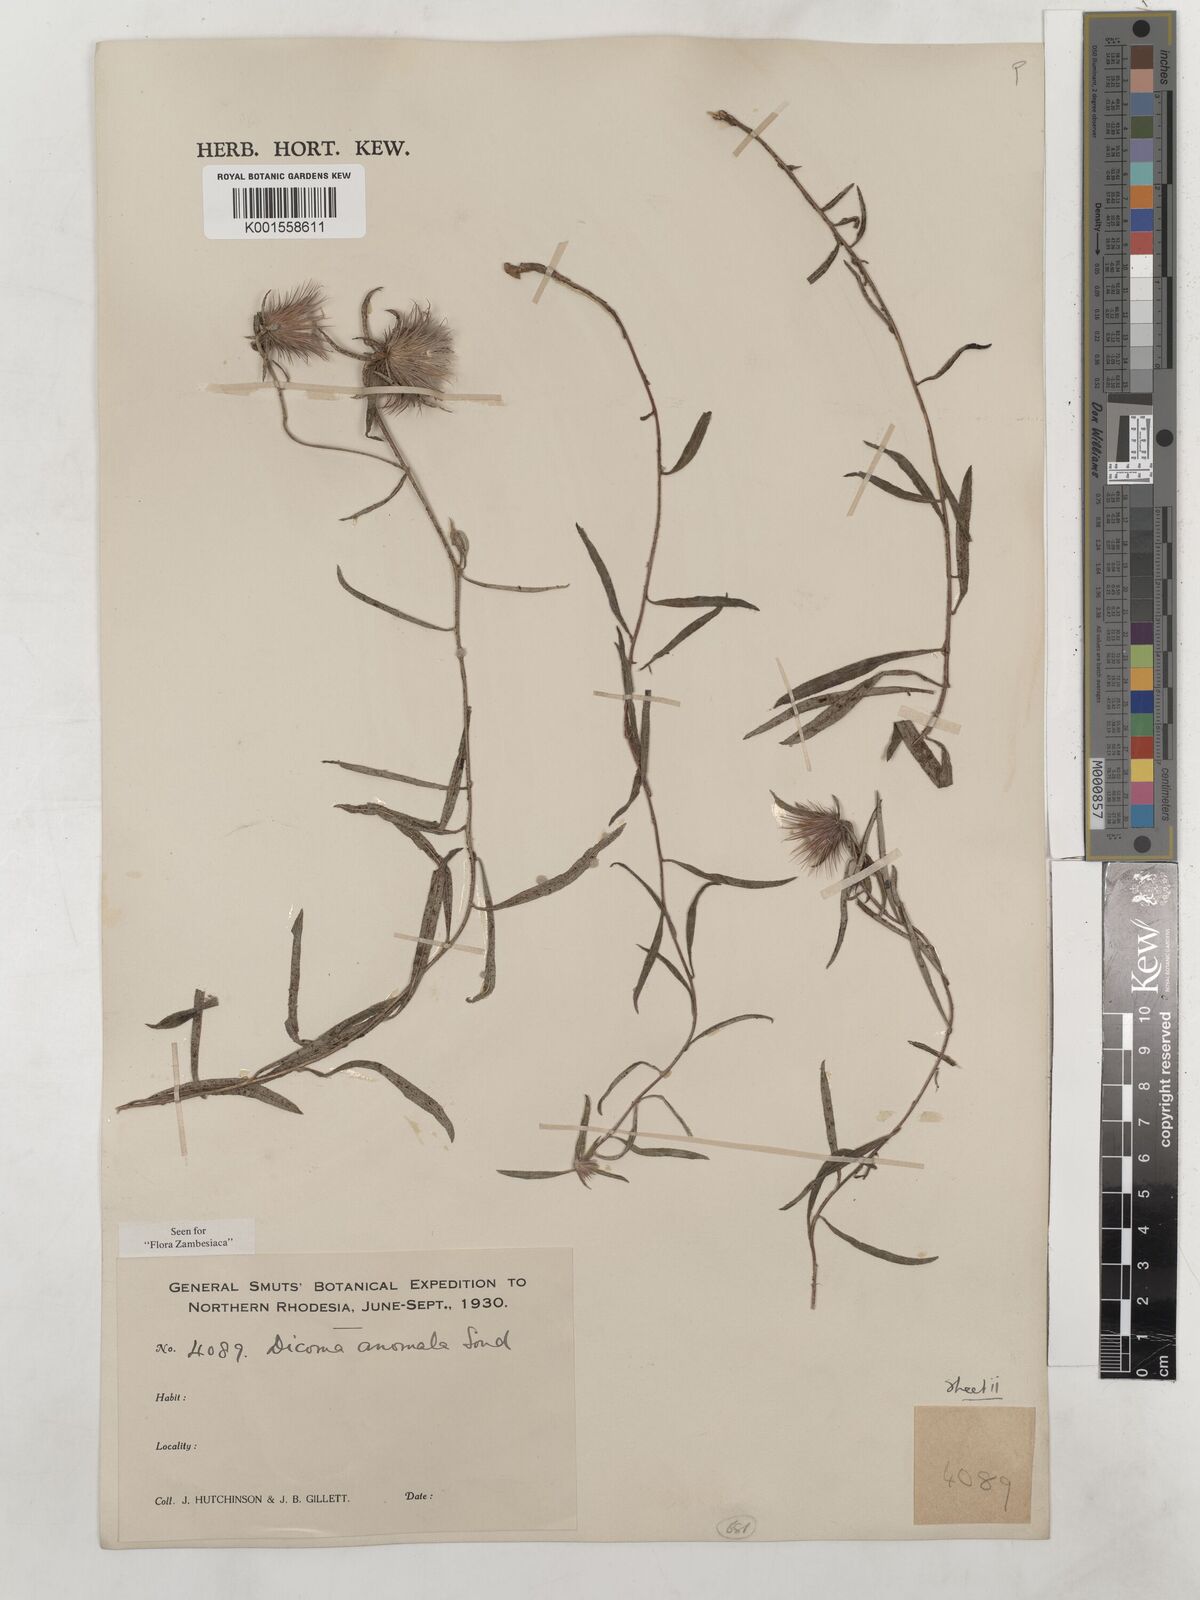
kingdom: Plantae
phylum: Tracheophyta
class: Magnoliopsida
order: Asterales
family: Asteraceae
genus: Dicoma
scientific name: Dicoma anomala
